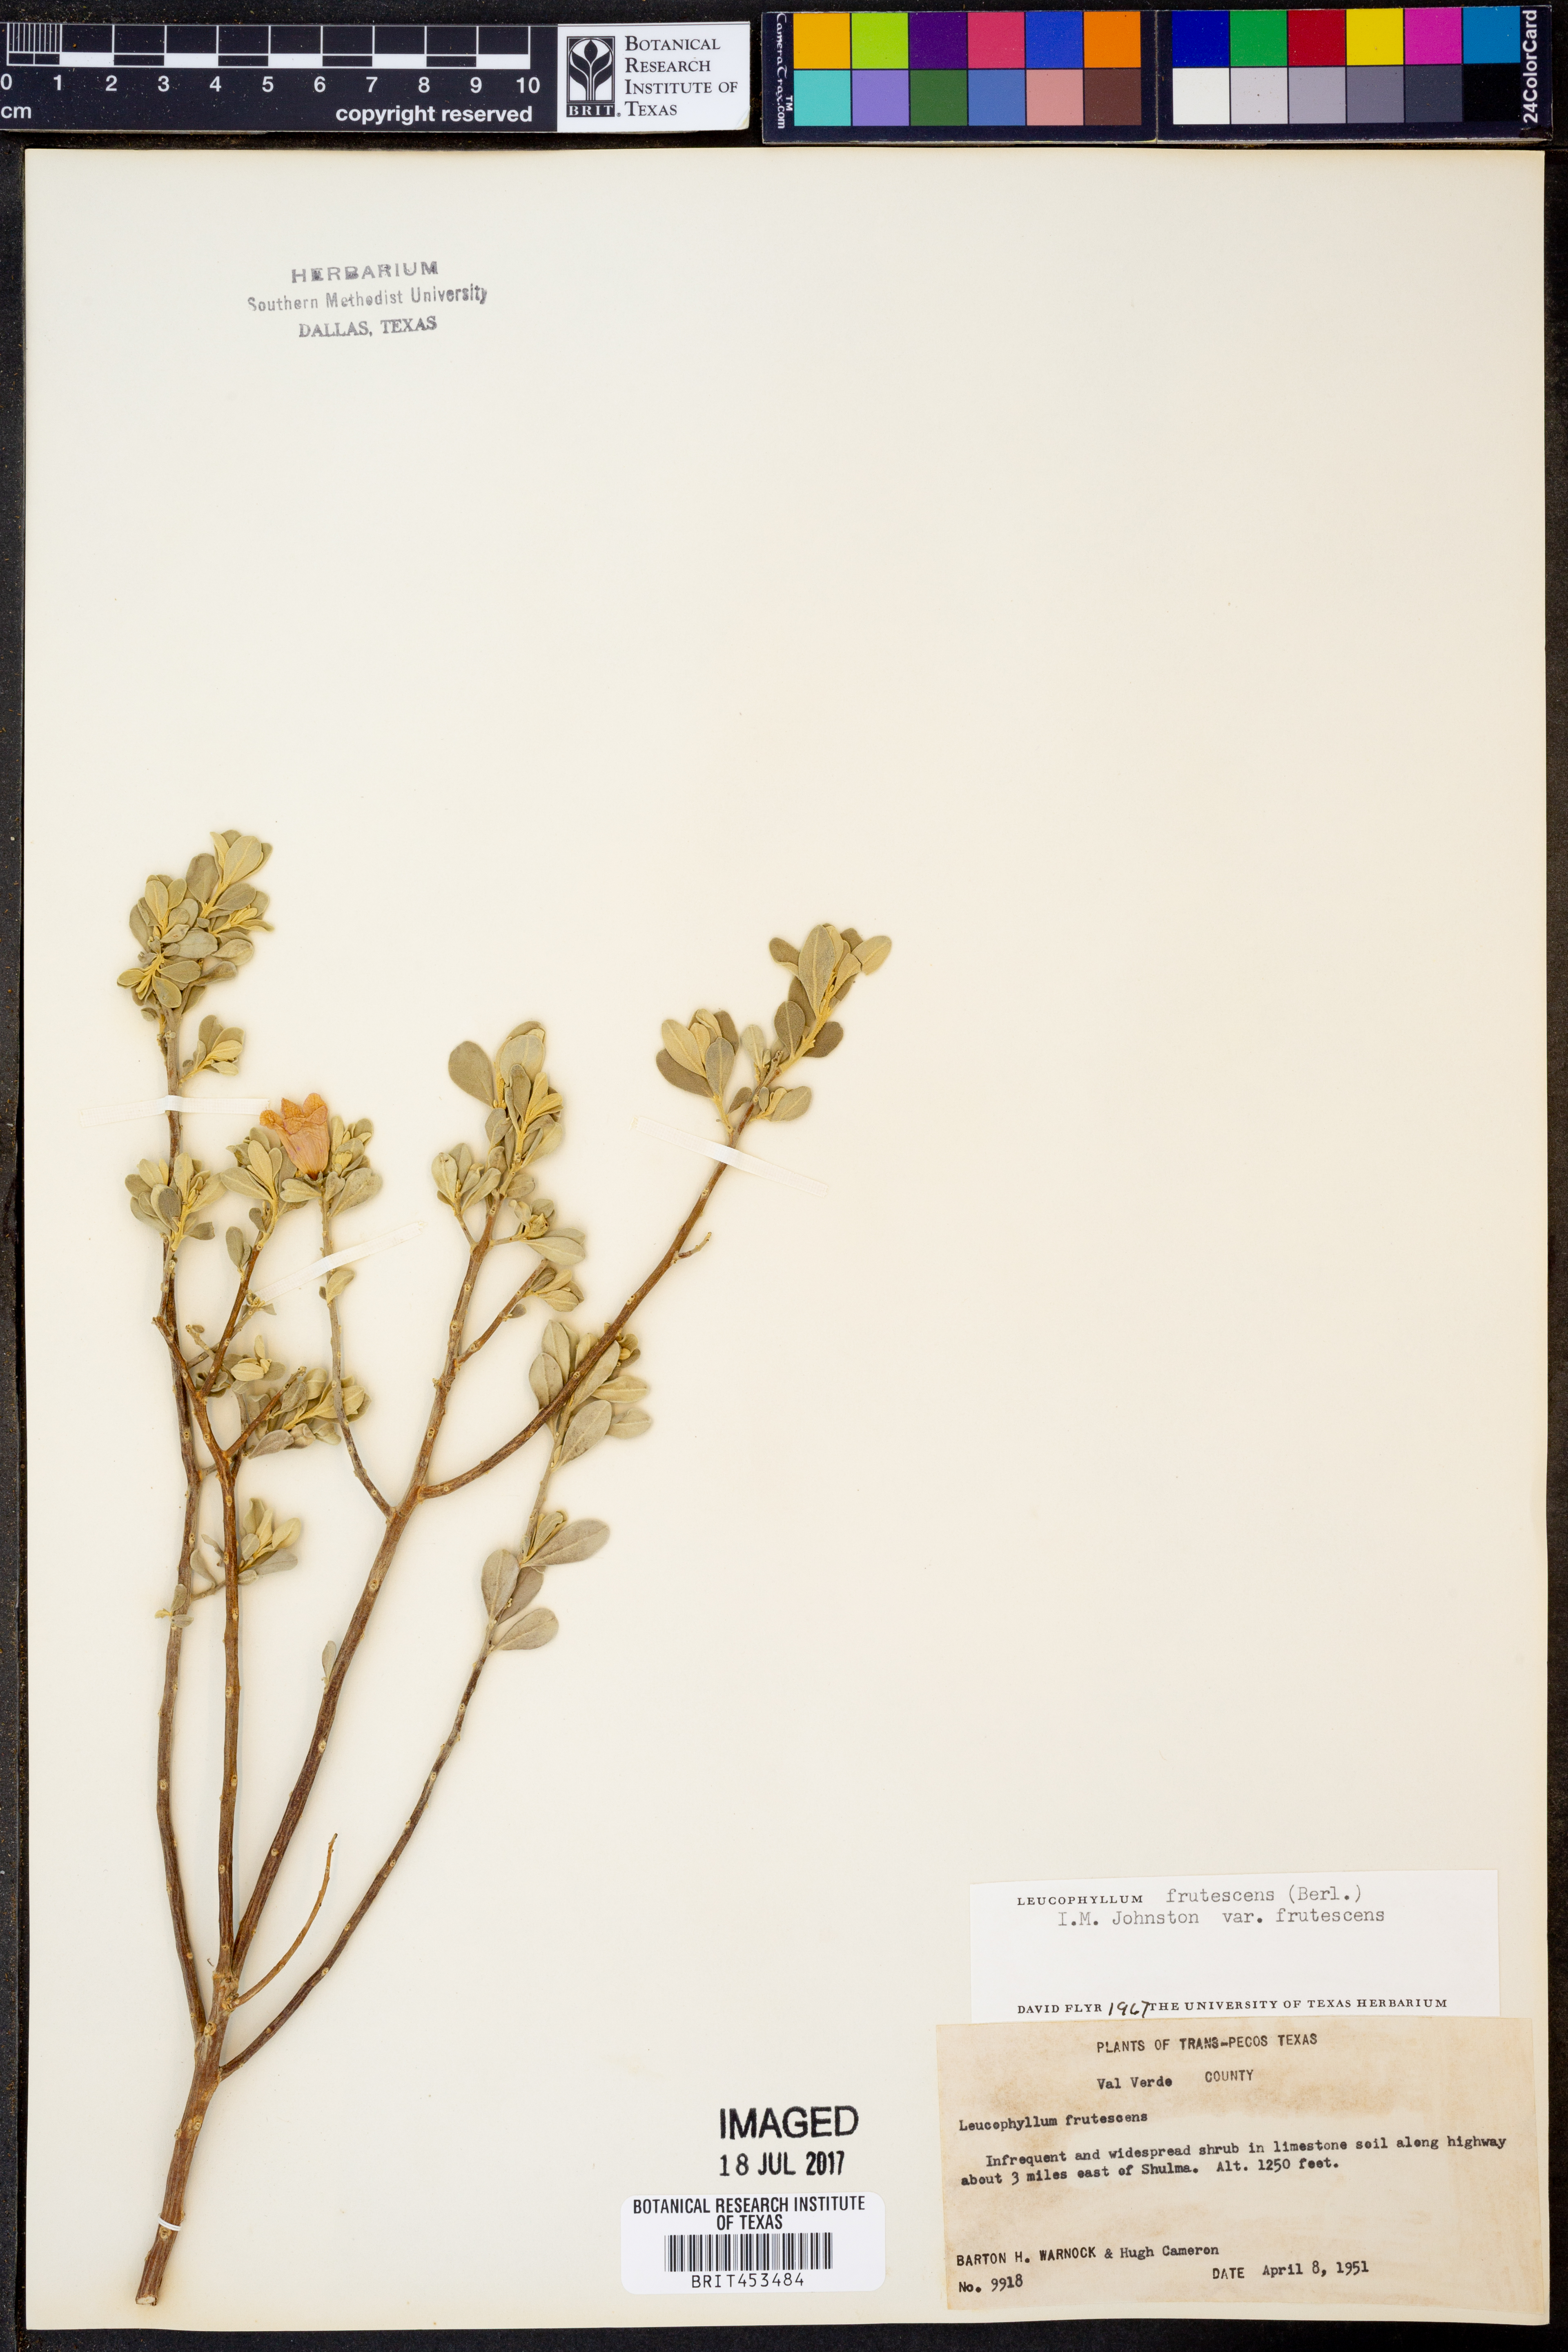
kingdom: Plantae
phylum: Tracheophyta
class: Magnoliopsida
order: Lamiales
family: Scrophulariaceae
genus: Leucophyllum
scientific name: Leucophyllum frutescens
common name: Texas silverleaf
